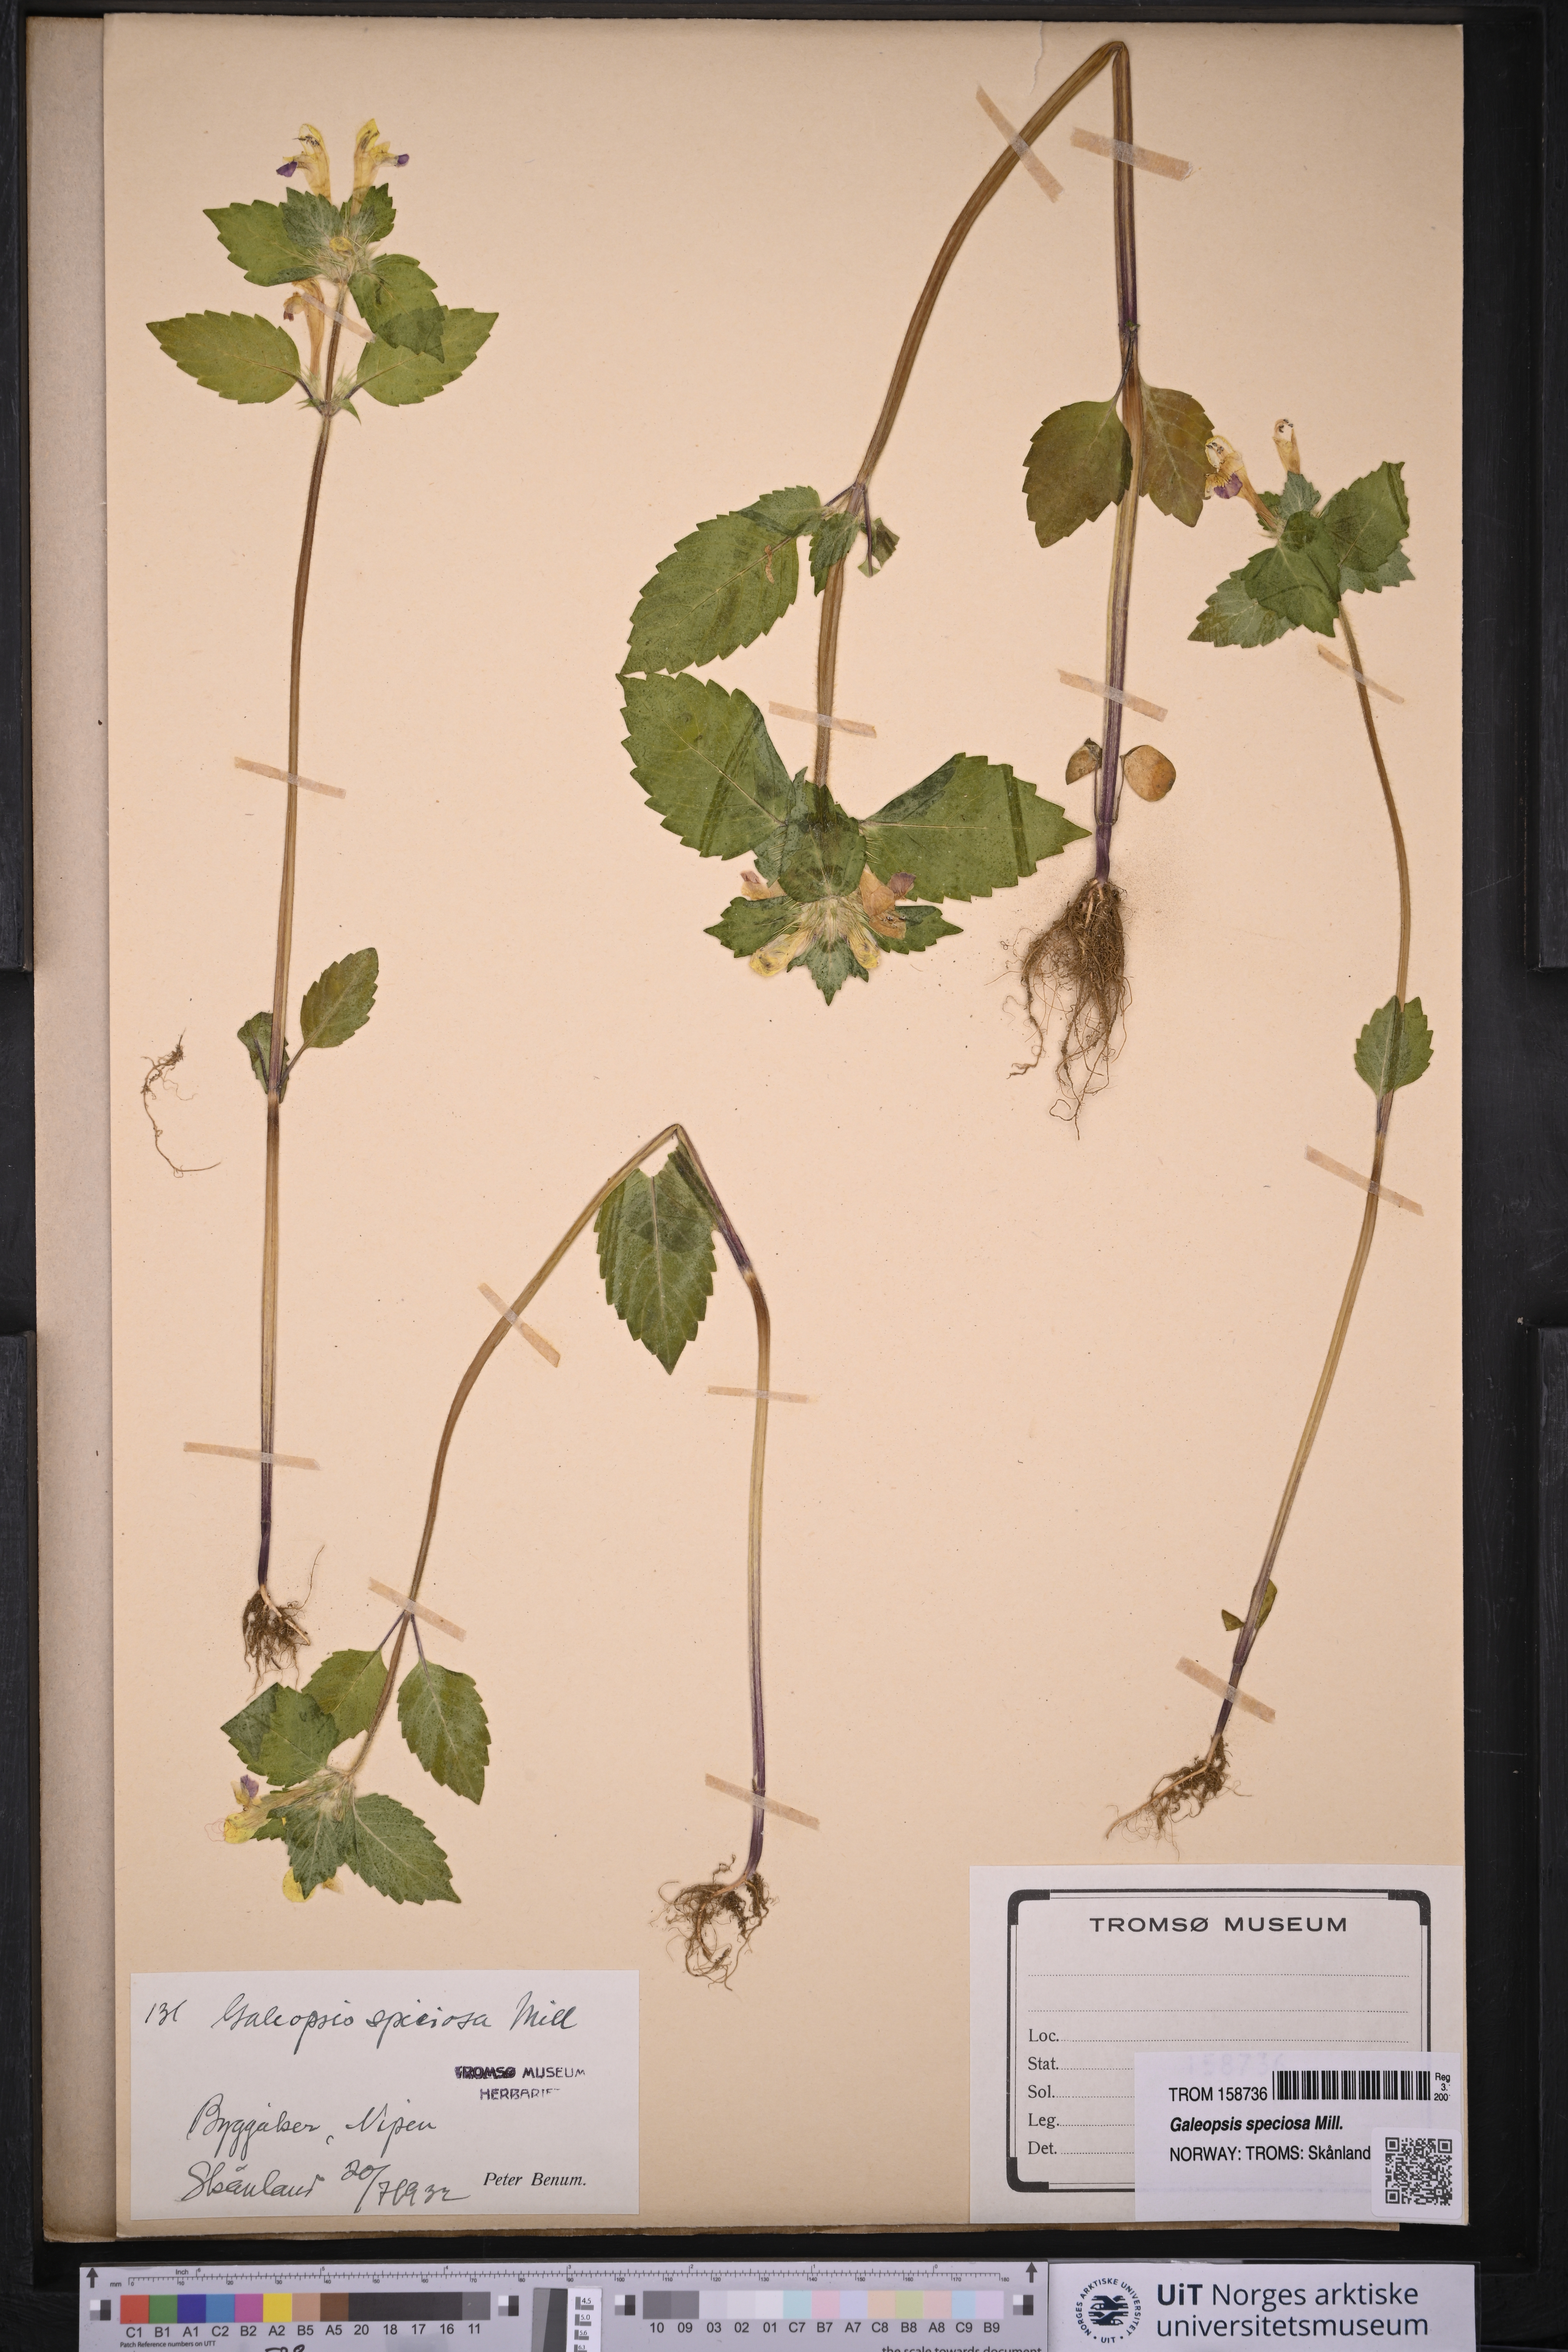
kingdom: Plantae
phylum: Tracheophyta
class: Magnoliopsida
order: Lamiales
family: Lamiaceae
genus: Galeopsis
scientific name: Galeopsis speciosa
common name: Large-flowered hemp-nettle
